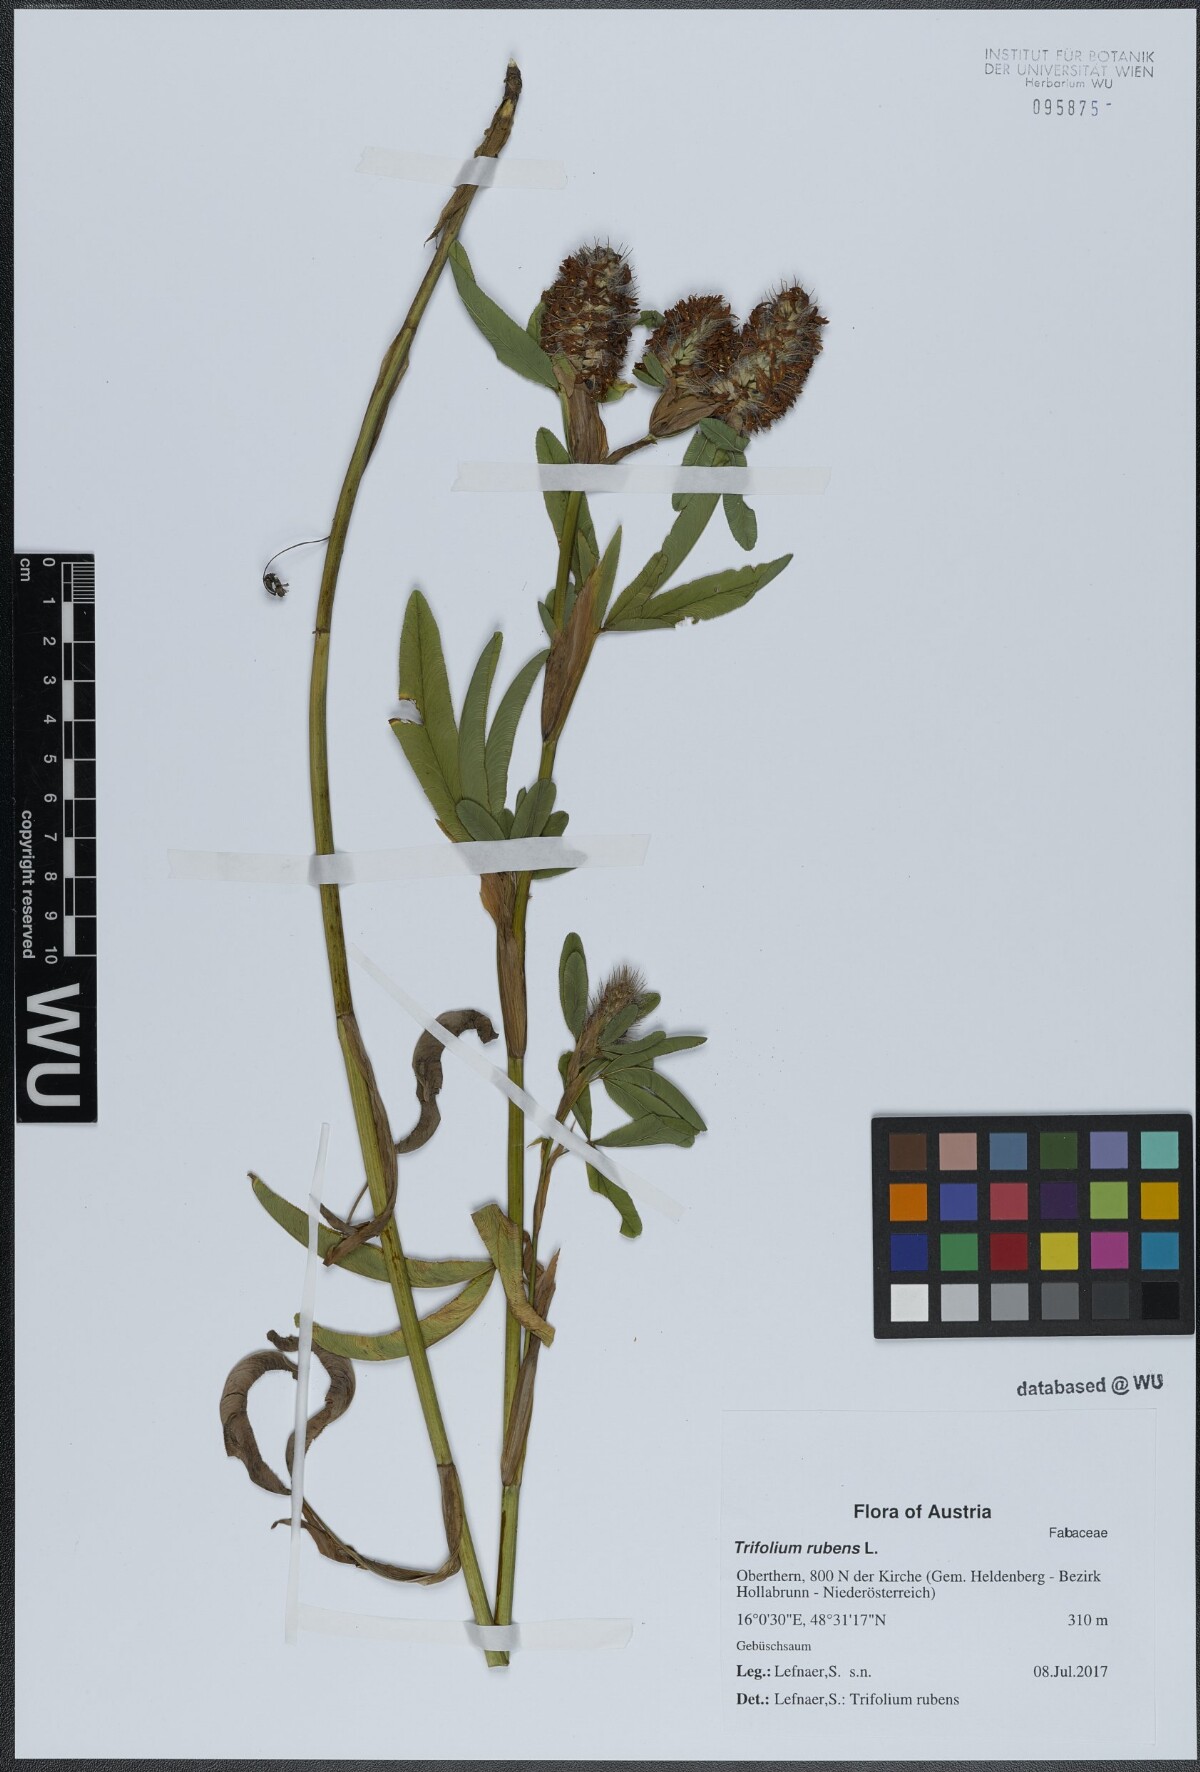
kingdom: Plantae
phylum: Tracheophyta
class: Magnoliopsida
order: Fabales
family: Fabaceae
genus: Trifolium
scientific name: Trifolium rubens
